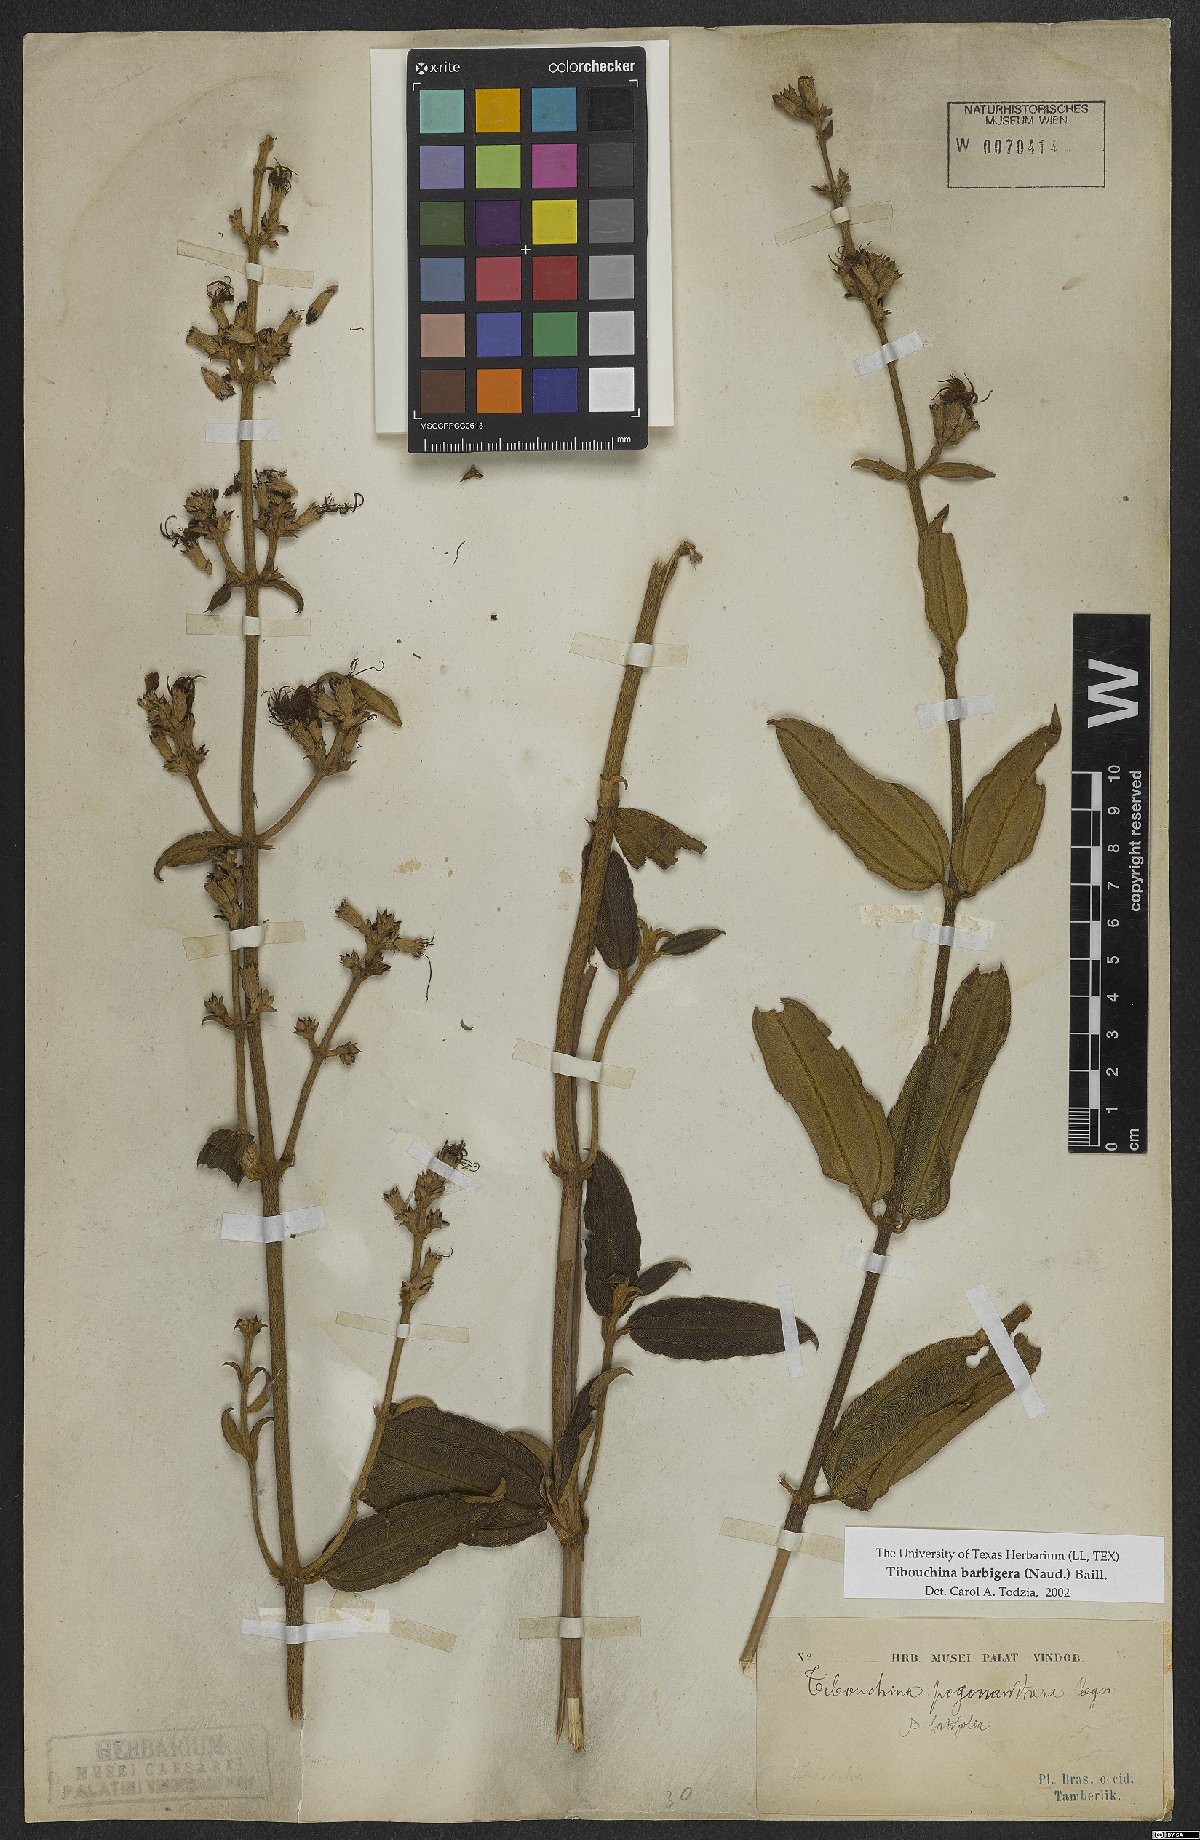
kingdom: Plantae
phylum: Tracheophyta
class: Magnoliopsida
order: Myrtales
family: Melastomataceae
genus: Pleroma
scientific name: Pleroma barbigerum
